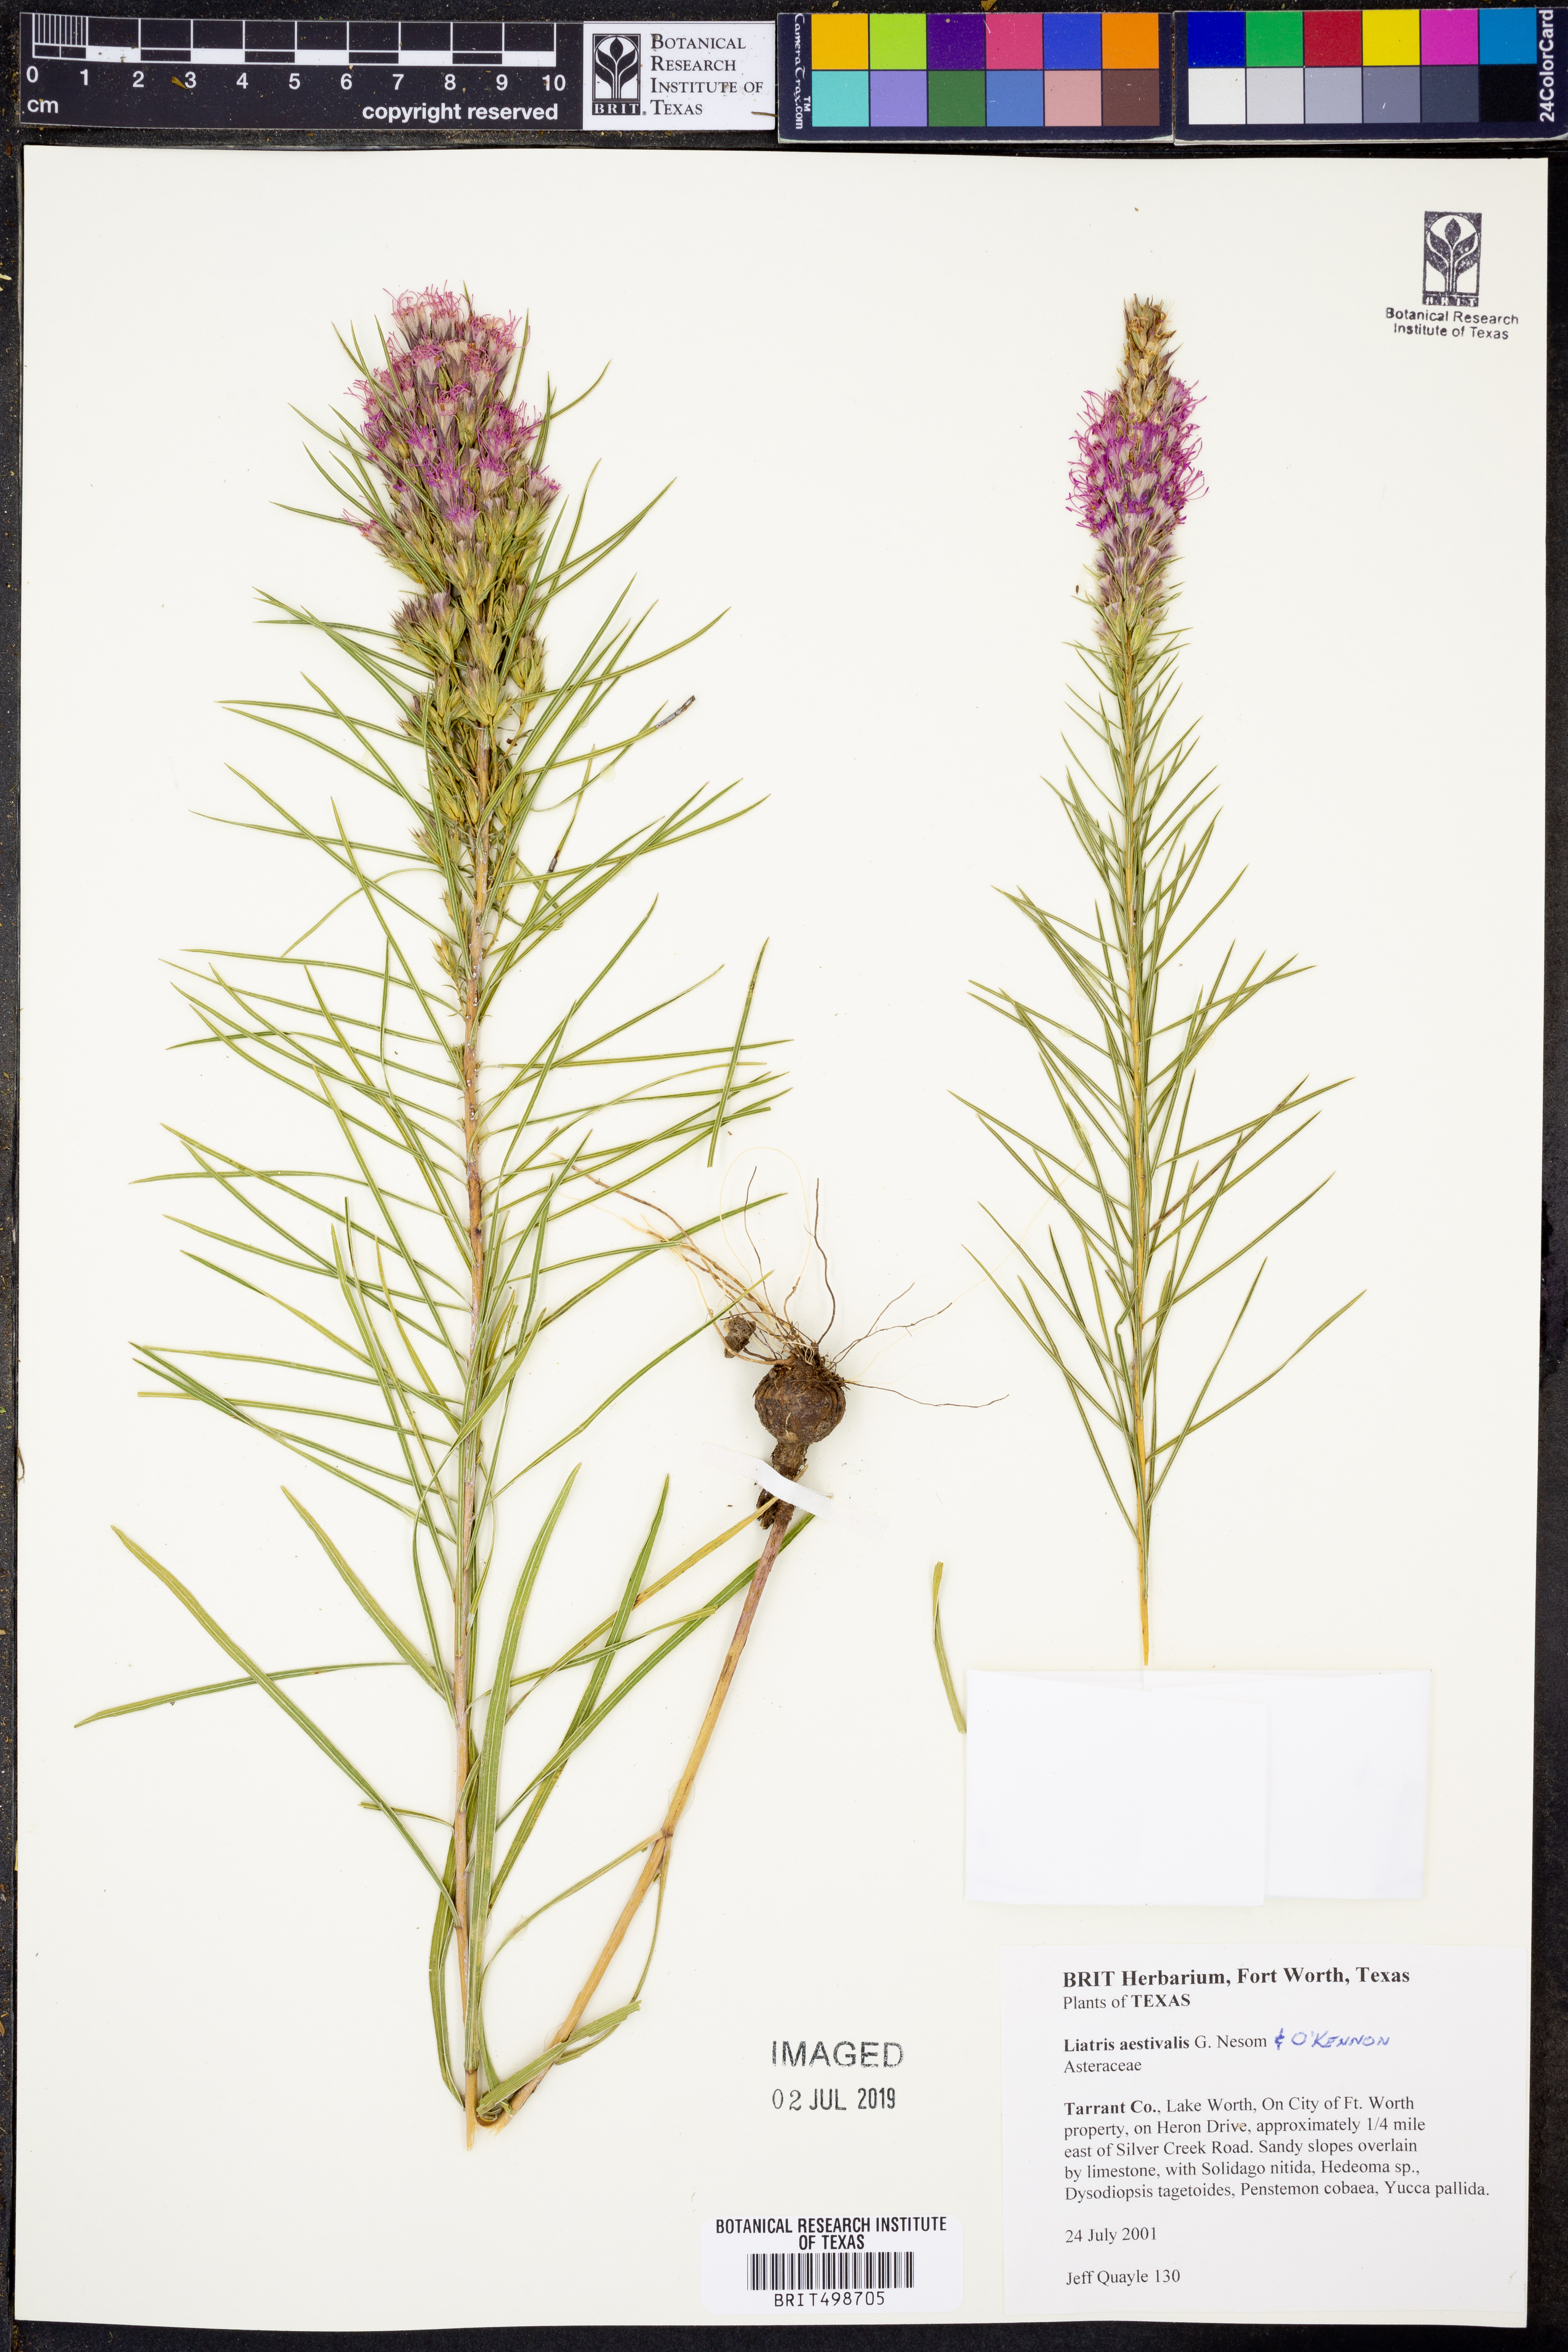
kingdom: Plantae
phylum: Tracheophyta
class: Magnoliopsida
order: Asterales
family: Asteraceae
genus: Liatris
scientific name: Liatris aestivalis
